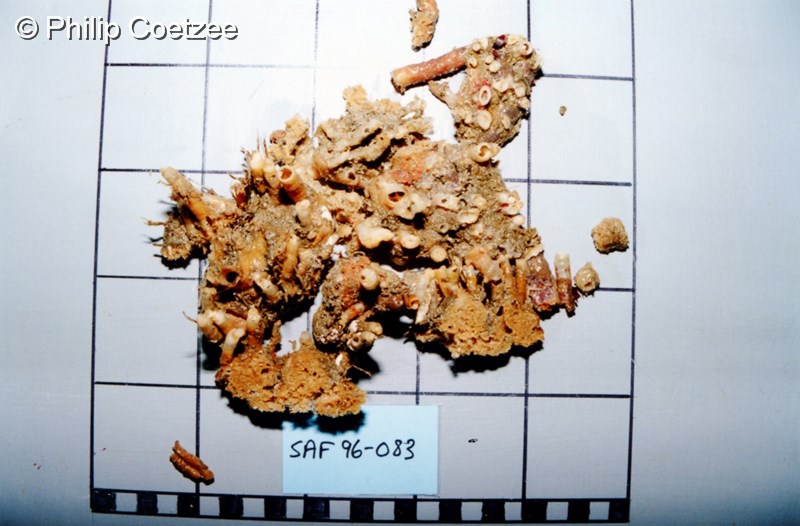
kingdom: Animalia
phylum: Porifera
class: Demospongiae
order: Haplosclerida
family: Phloeodictyidae
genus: Oceanapia
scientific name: Oceanapia eumita
